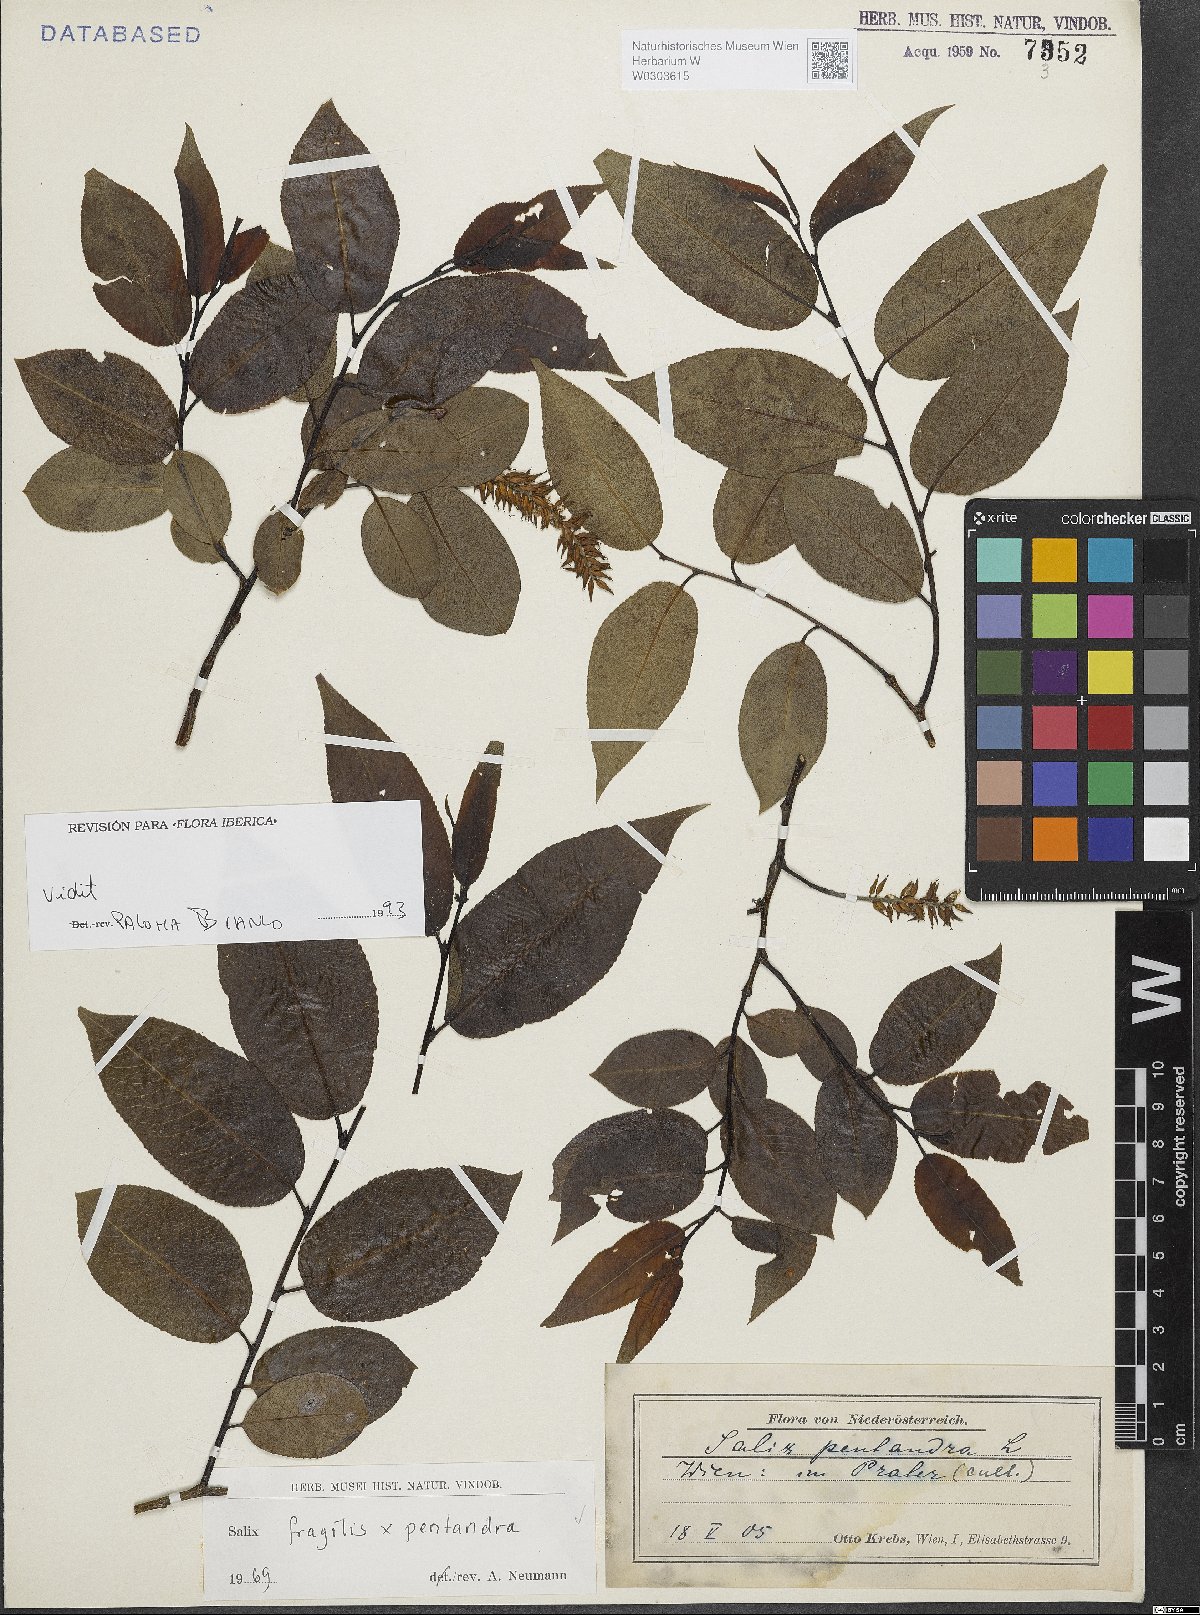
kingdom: Plantae
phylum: Tracheophyta
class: Magnoliopsida
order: Malpighiales
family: Salicaceae
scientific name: Salicaceae
